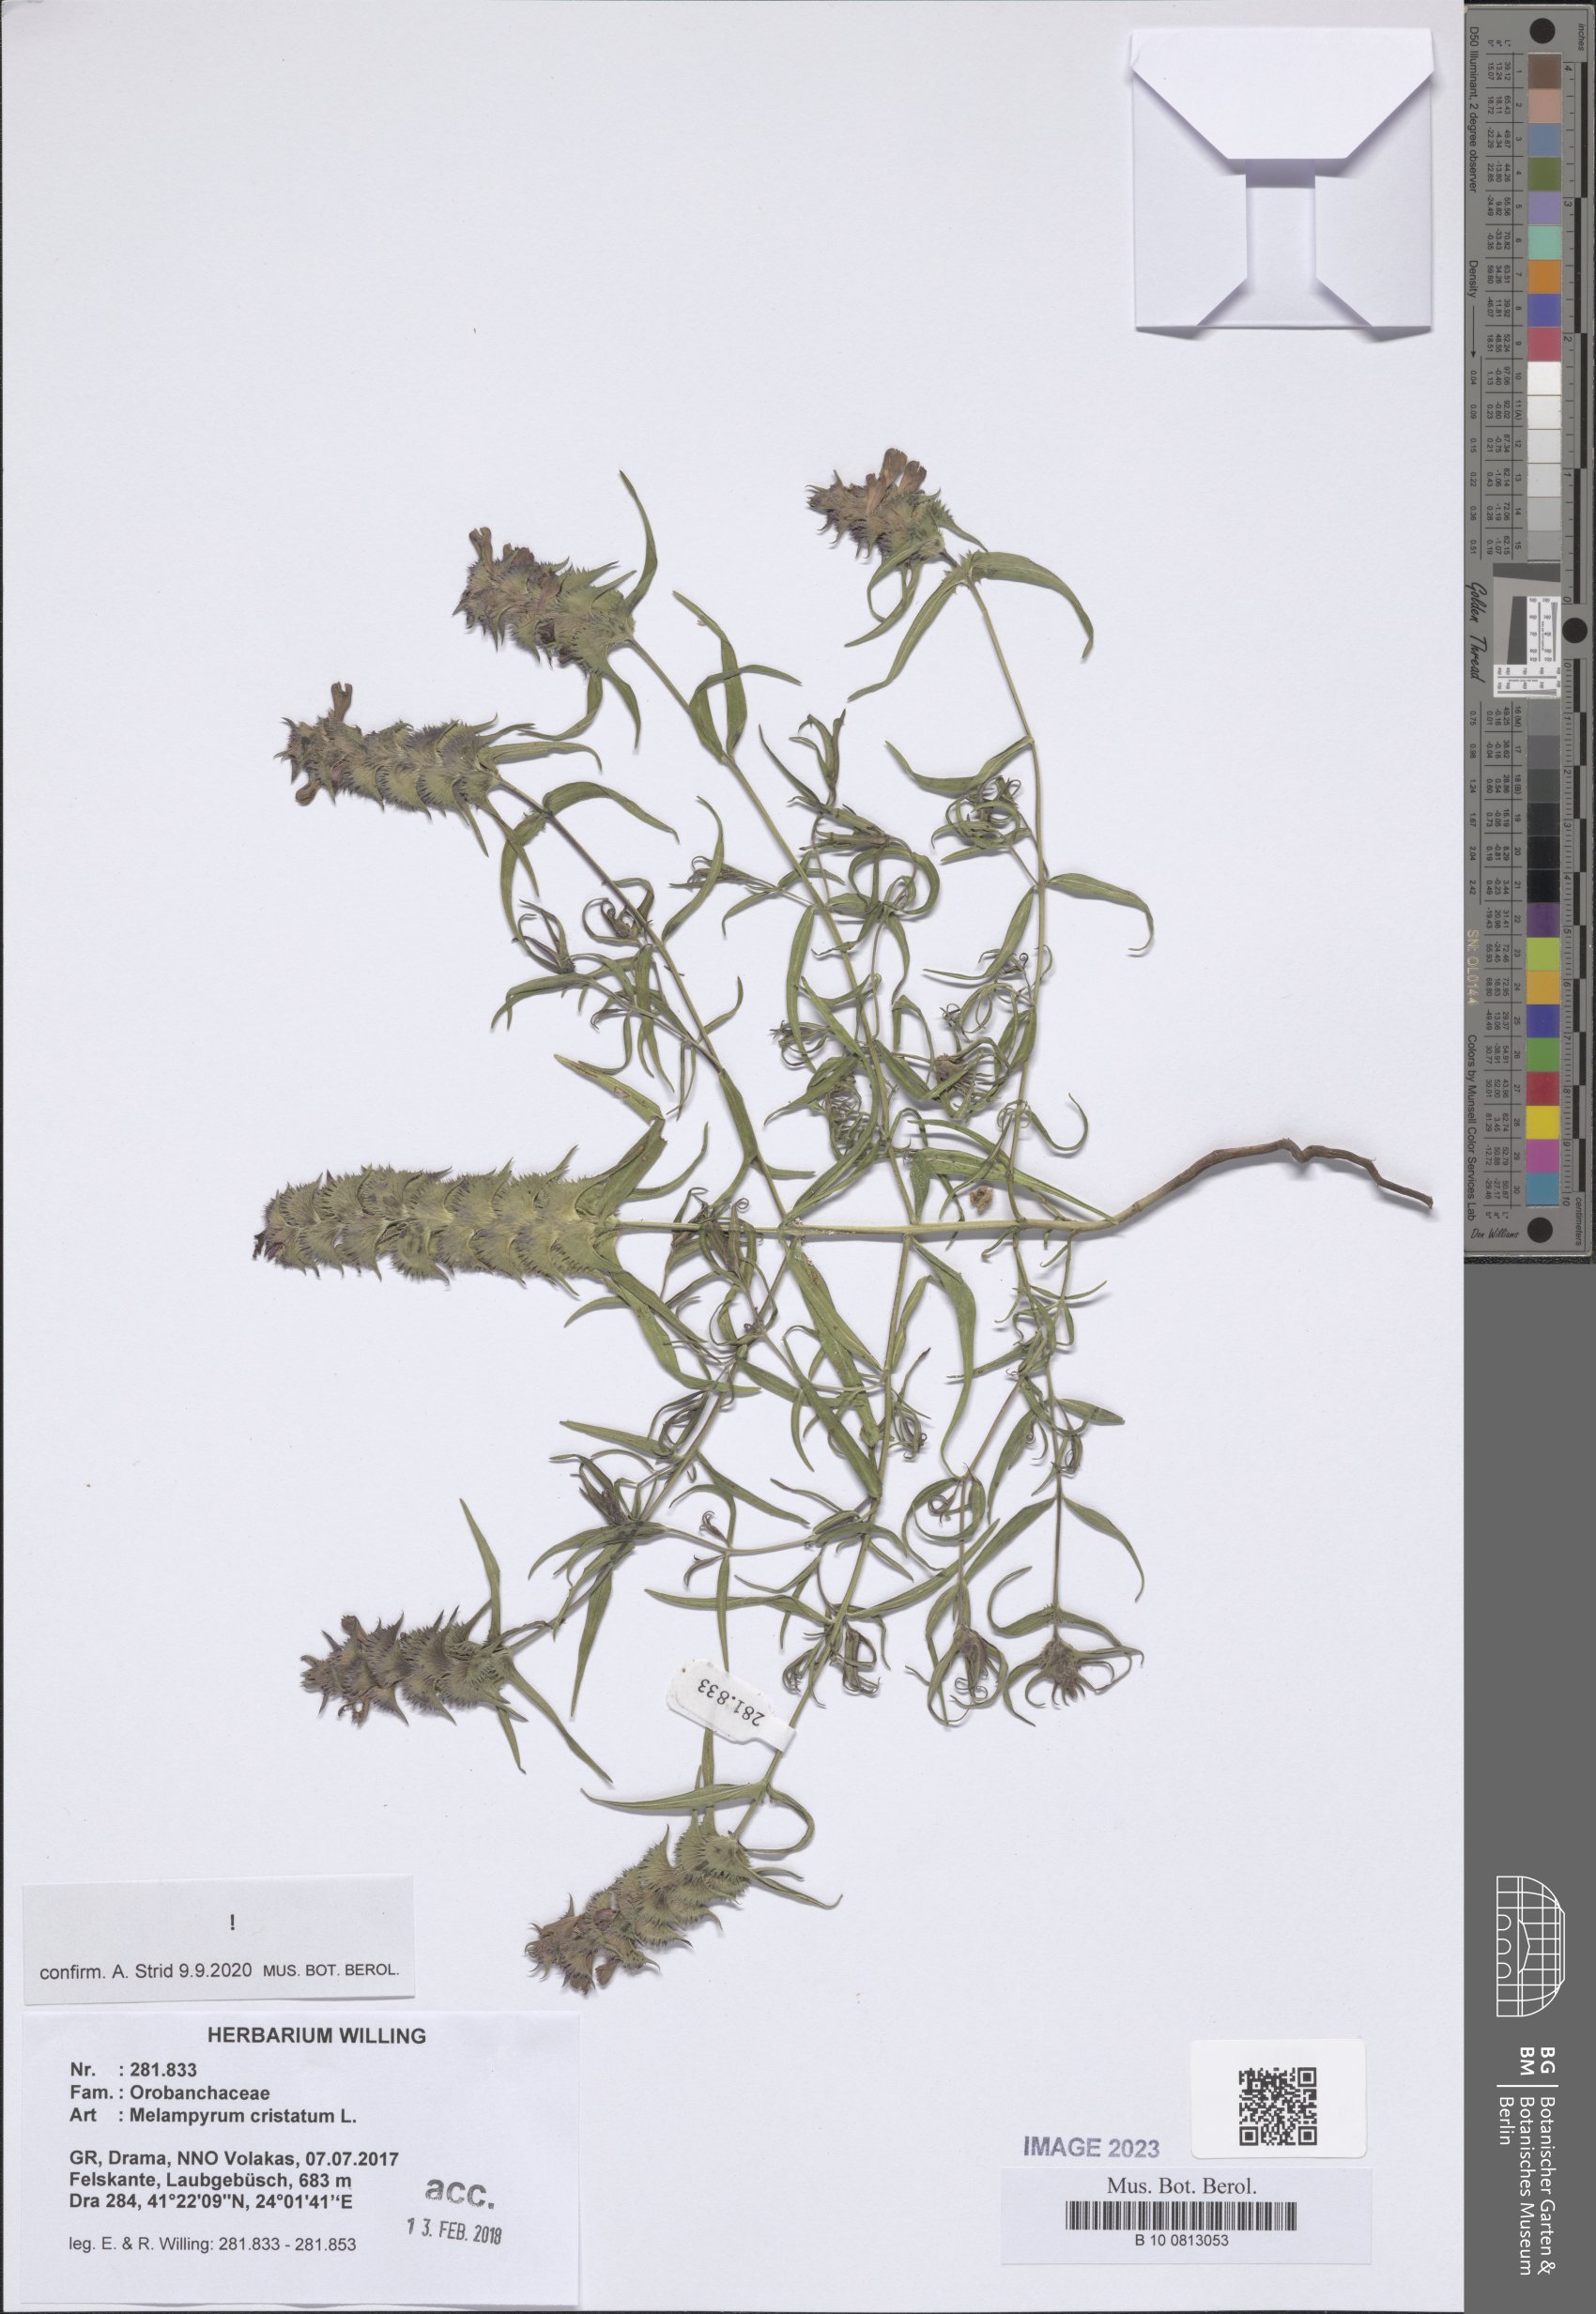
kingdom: Plantae
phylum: Tracheophyta
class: Magnoliopsida
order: Lamiales
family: Orobanchaceae
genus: Melampyrum
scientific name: Melampyrum cristatum
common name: Crested cow-wheat
